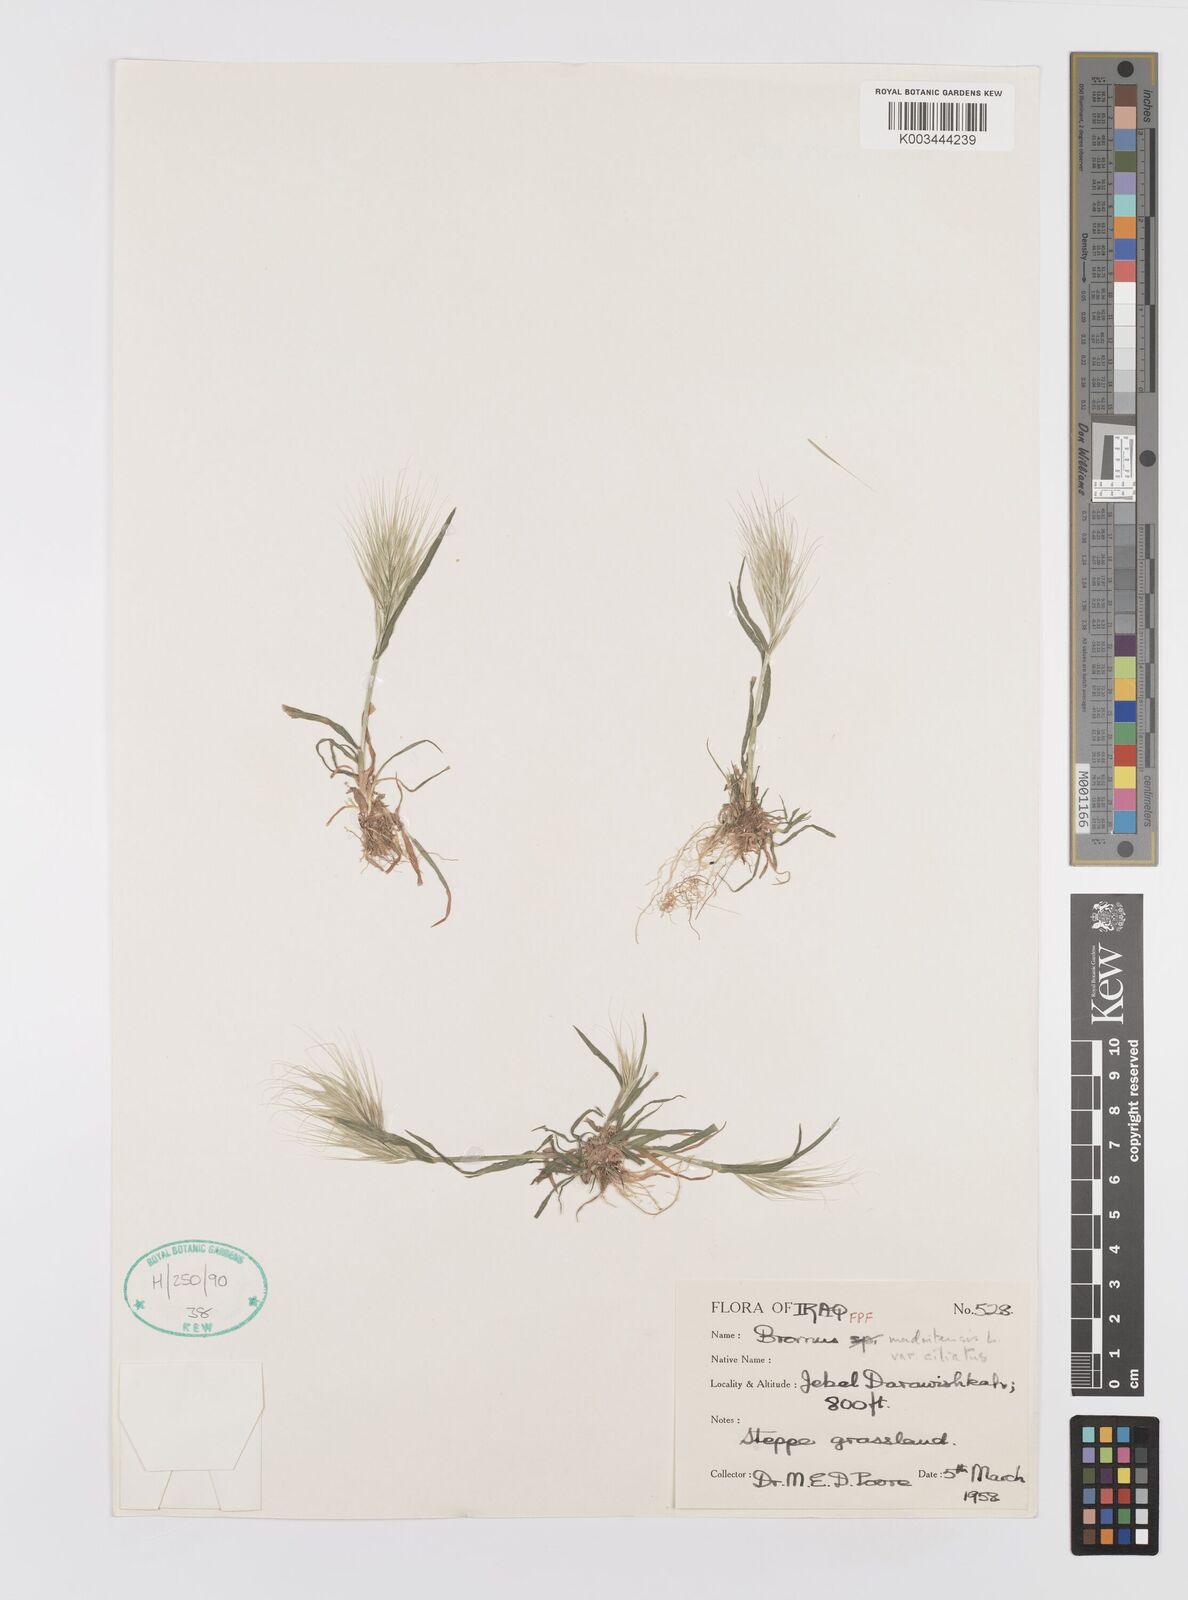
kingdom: Plantae
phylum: Tracheophyta
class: Liliopsida
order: Poales
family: Poaceae
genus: Bromus
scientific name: Bromus madritensis
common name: Compact brome
